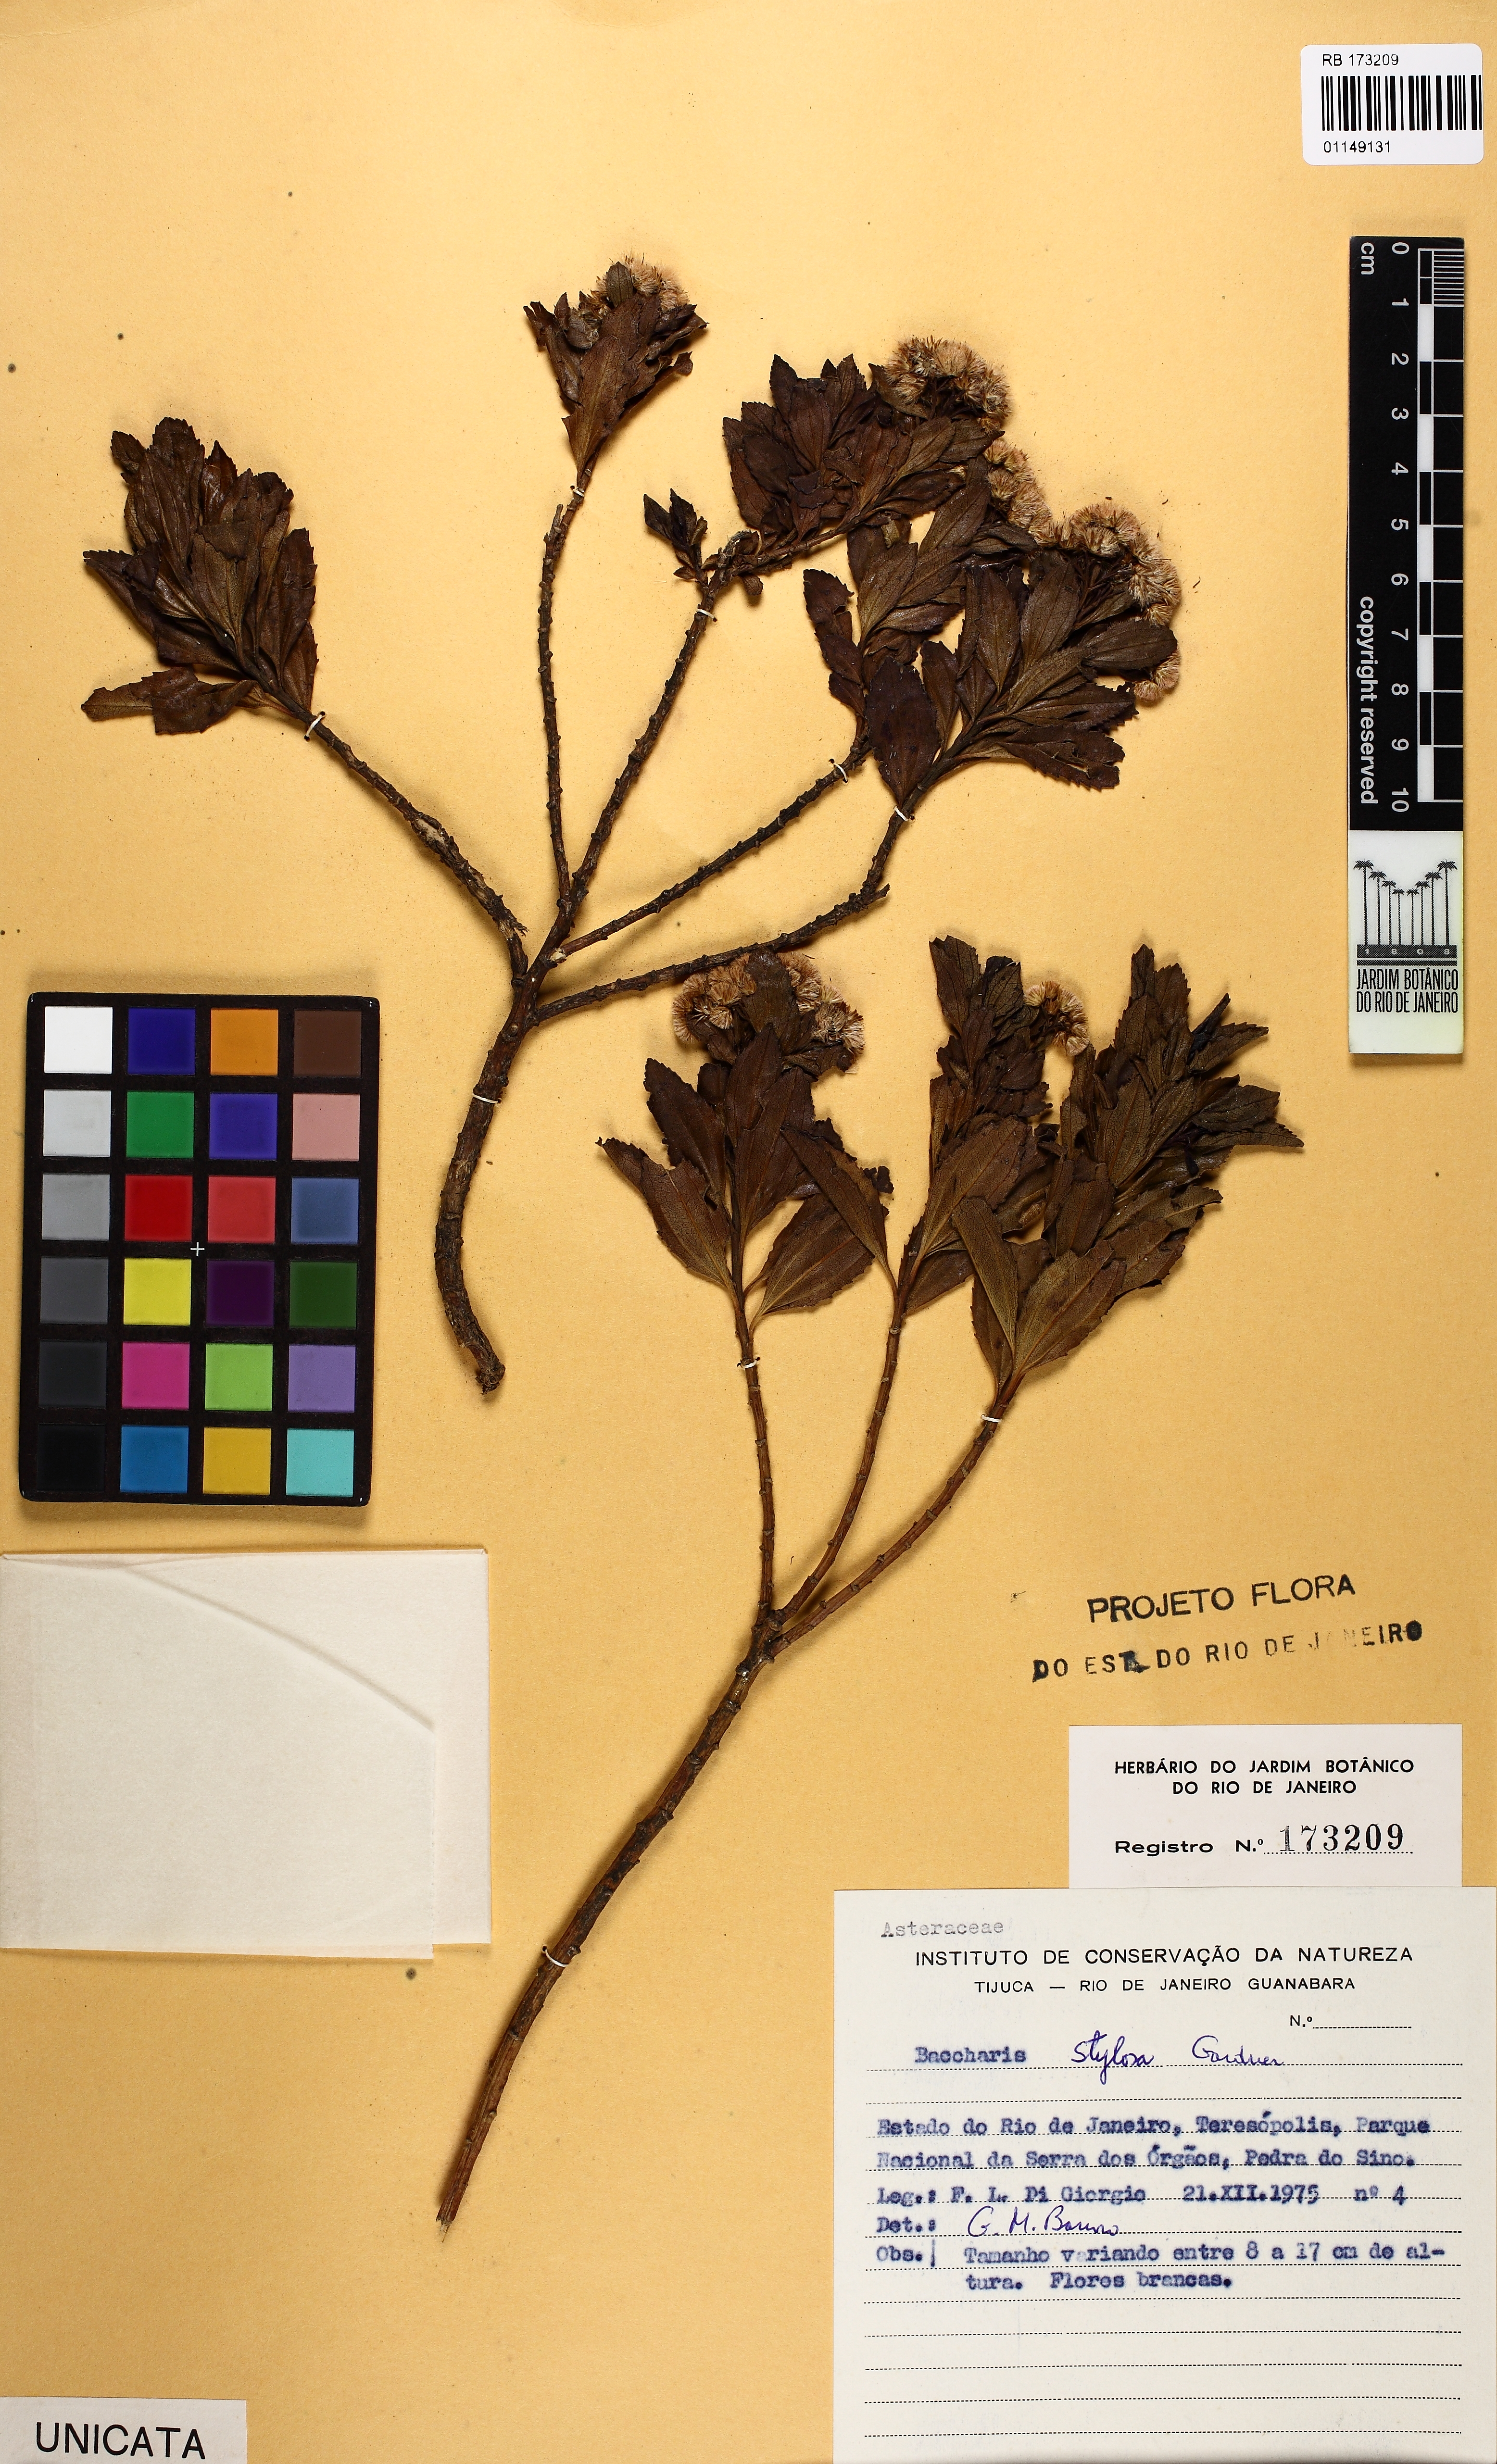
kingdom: Plantae
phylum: Tracheophyta
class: Magnoliopsida
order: Asterales
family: Asteraceae
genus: Baccharis
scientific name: Baccharis stylosa
